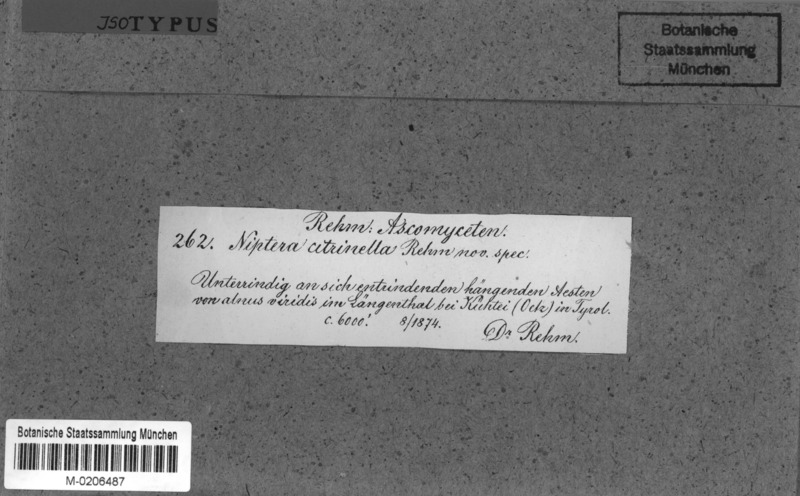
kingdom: Fungi
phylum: Ascomycota
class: Leotiomycetes
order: Helotiales
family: Mollisiaceae
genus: Dibeloniella
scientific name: Dibeloniella citrinella
